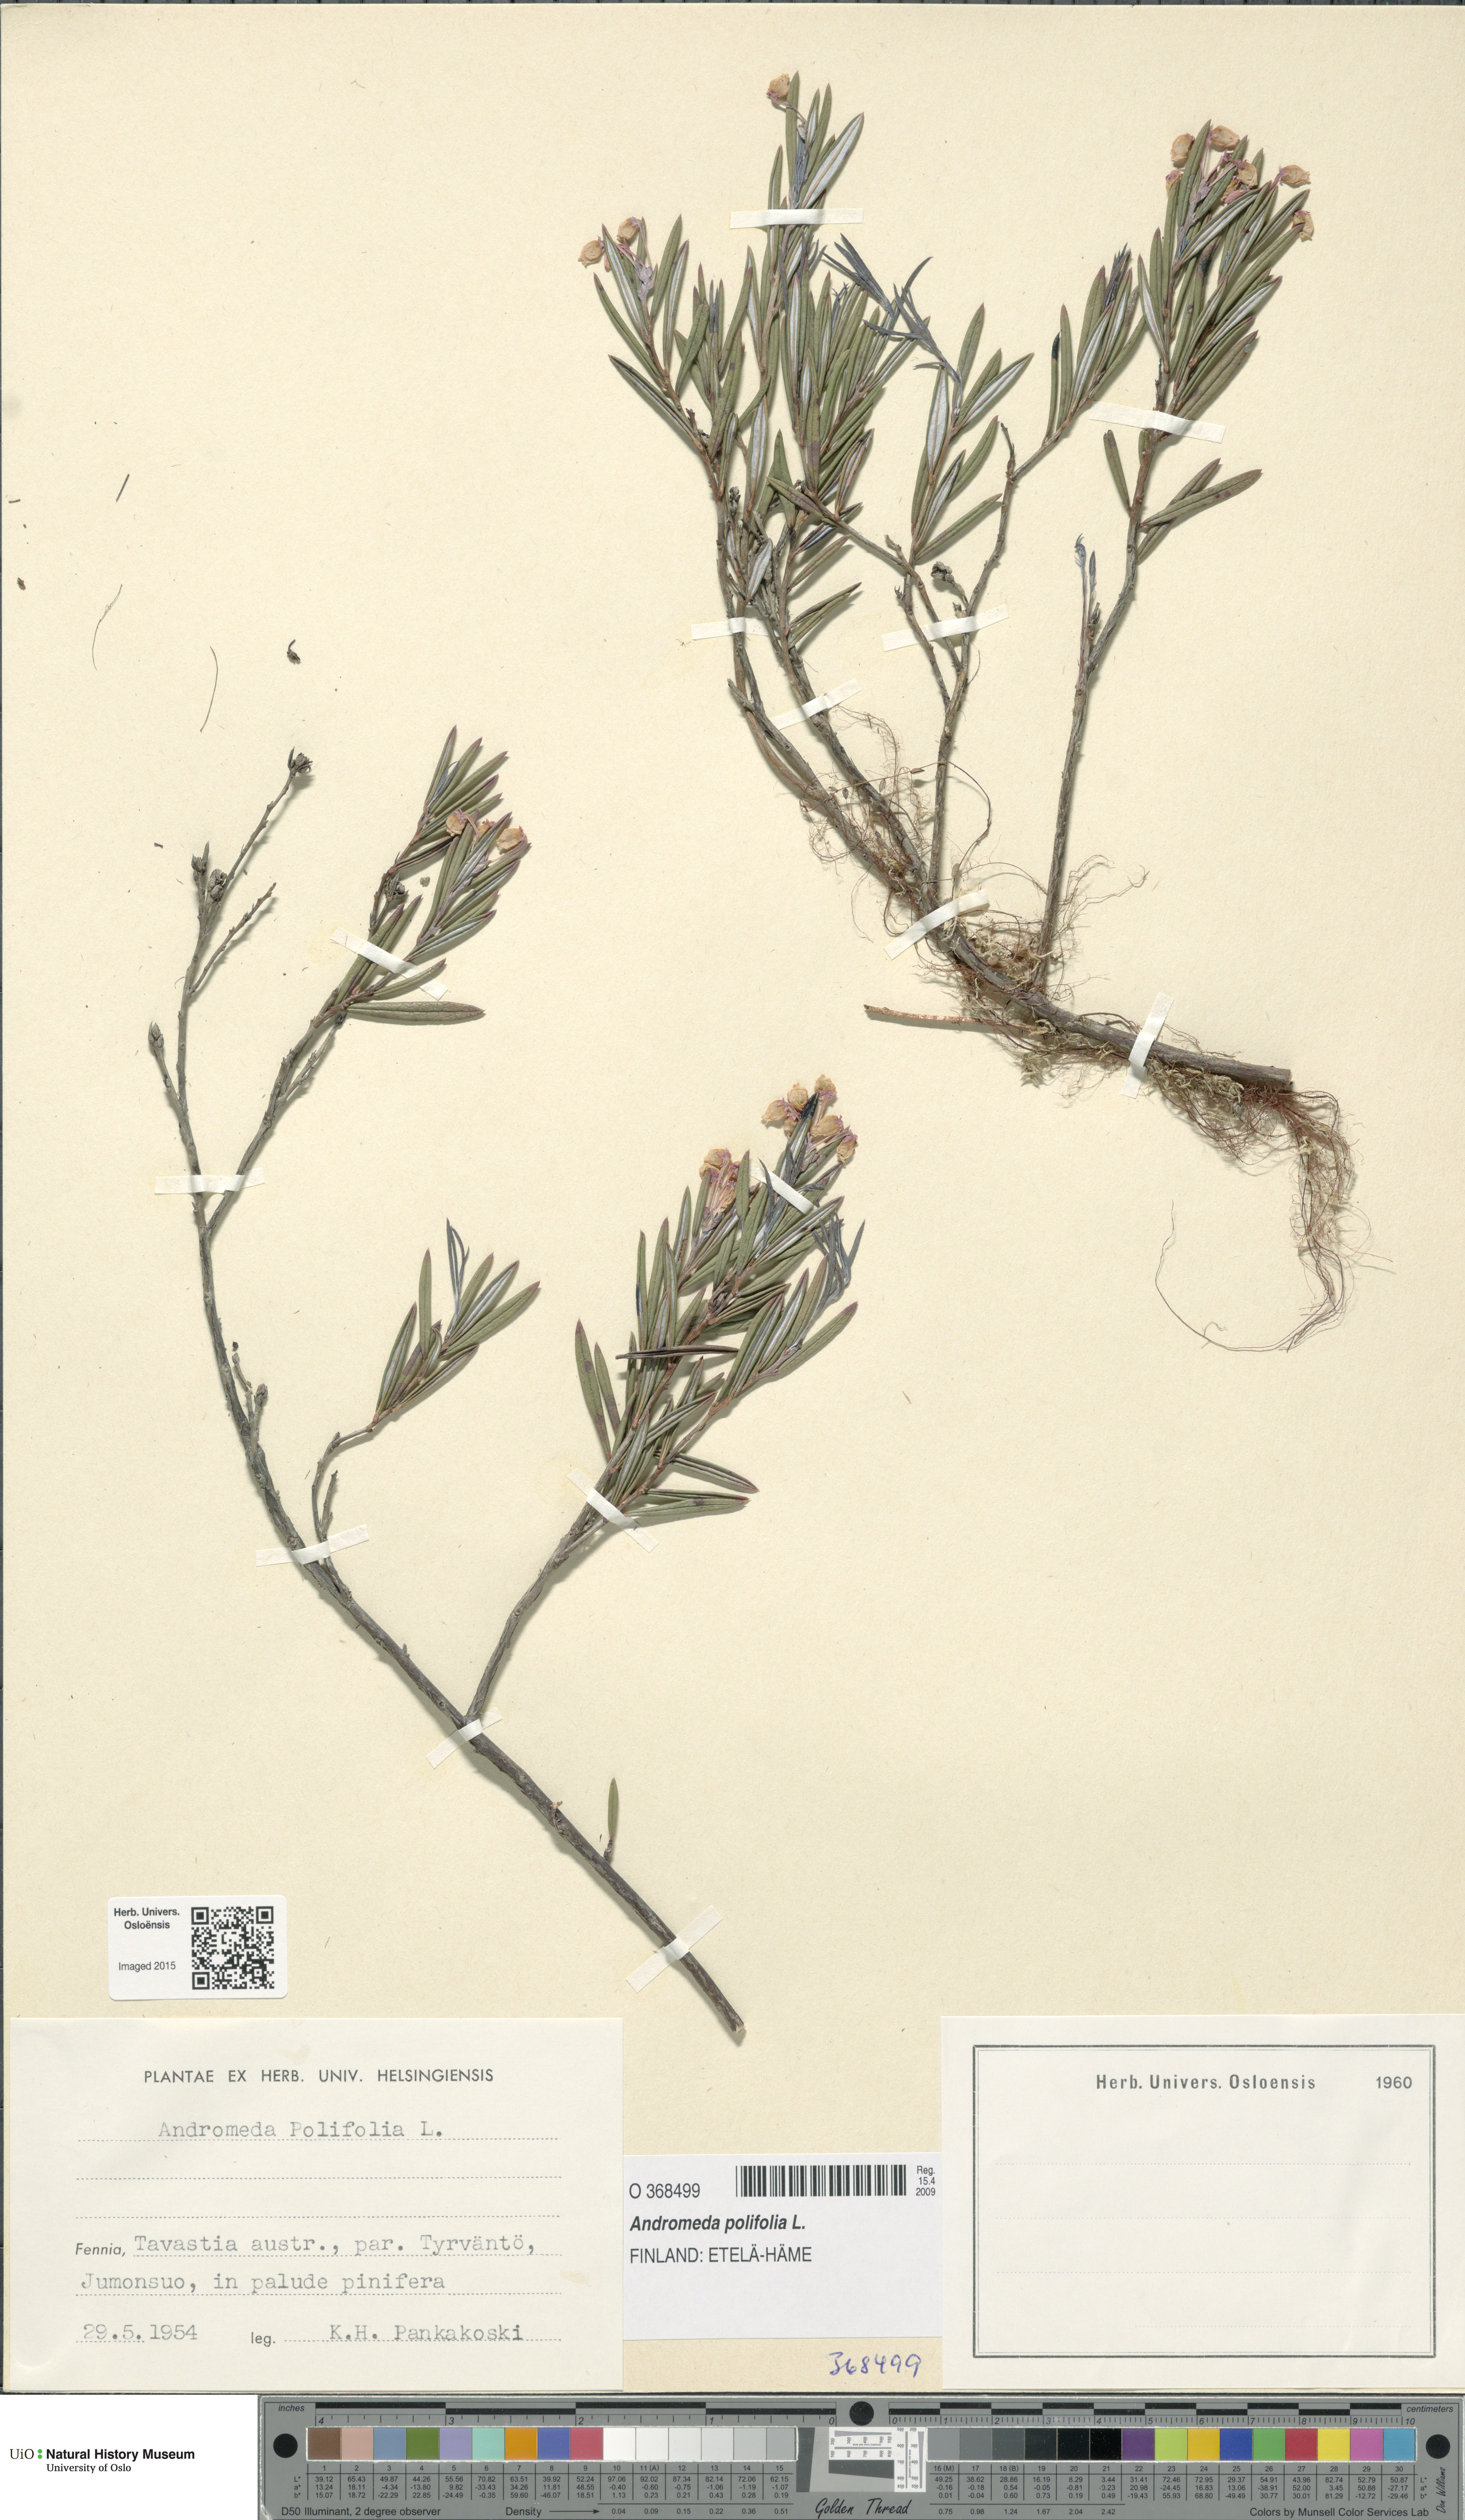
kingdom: Plantae
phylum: Tracheophyta
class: Magnoliopsida
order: Ericales
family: Ericaceae
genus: Andromeda
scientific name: Andromeda polifolia
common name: Bog-rosemary
